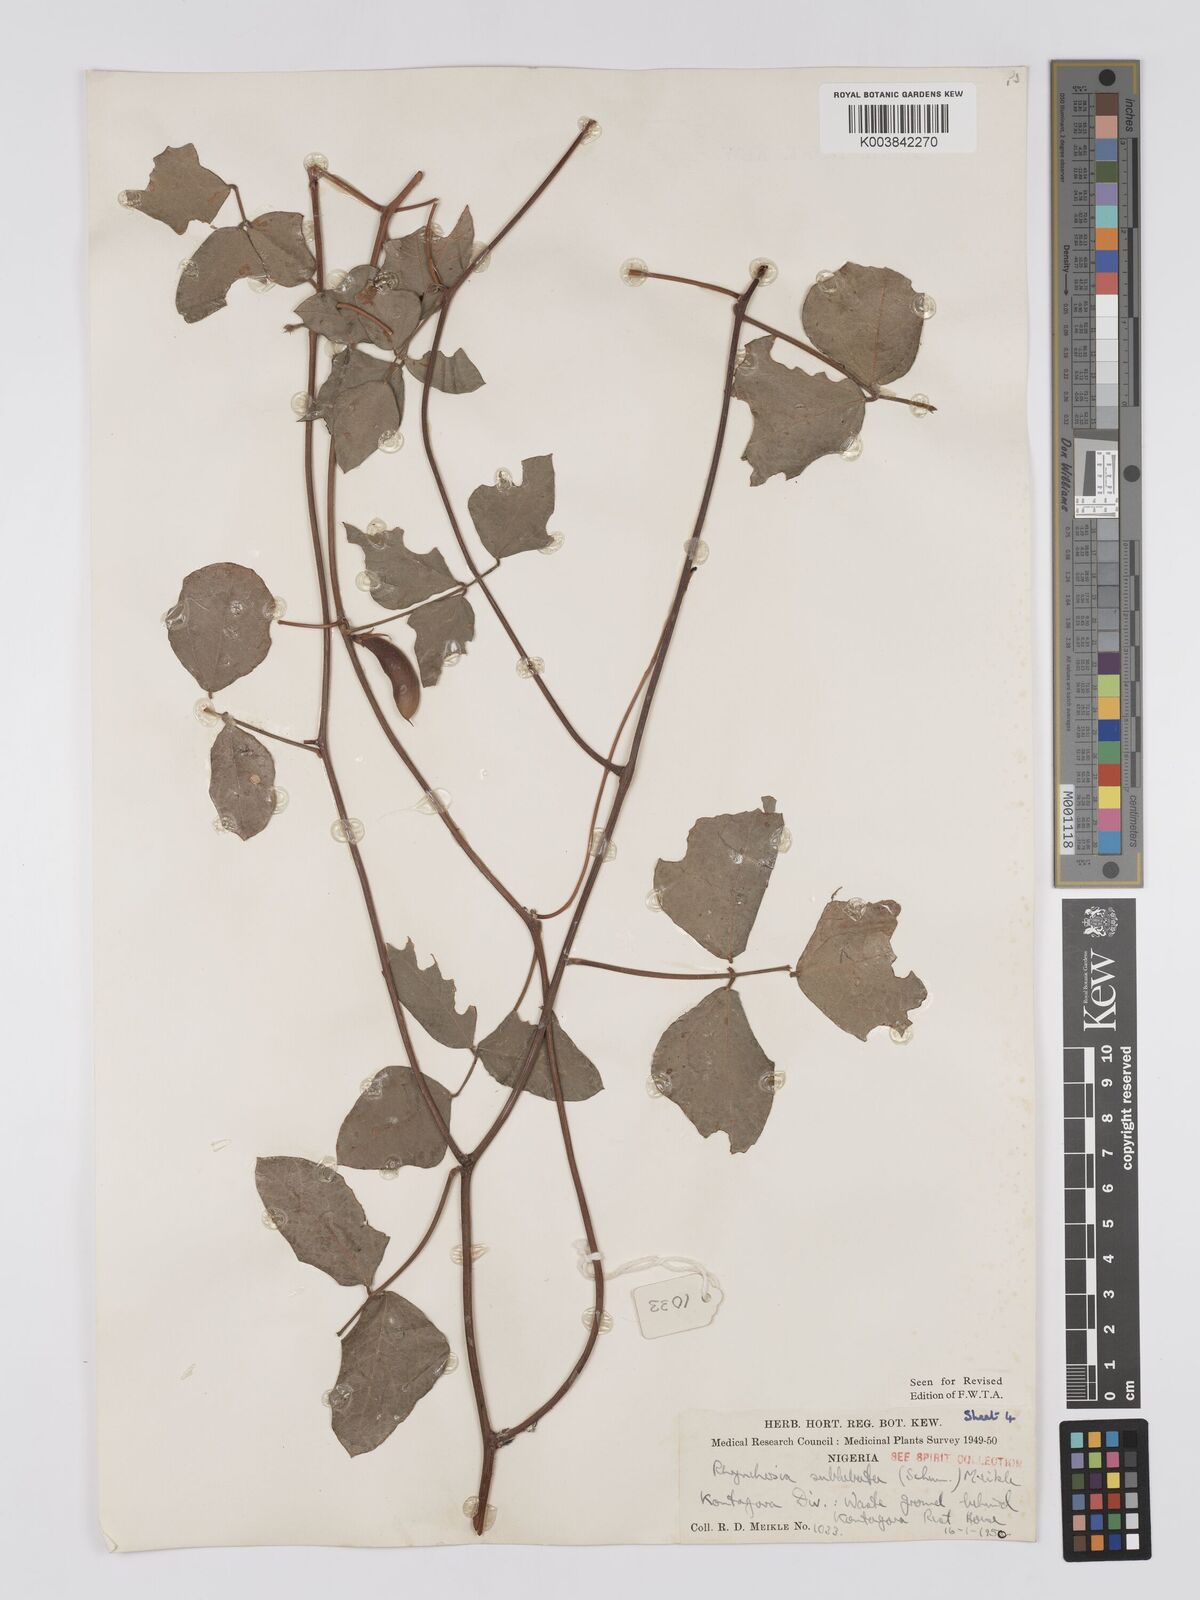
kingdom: Plantae
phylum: Tracheophyta
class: Magnoliopsida
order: Fabales
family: Fabaceae
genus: Rhynchosia
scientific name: Rhynchosia sublobata
